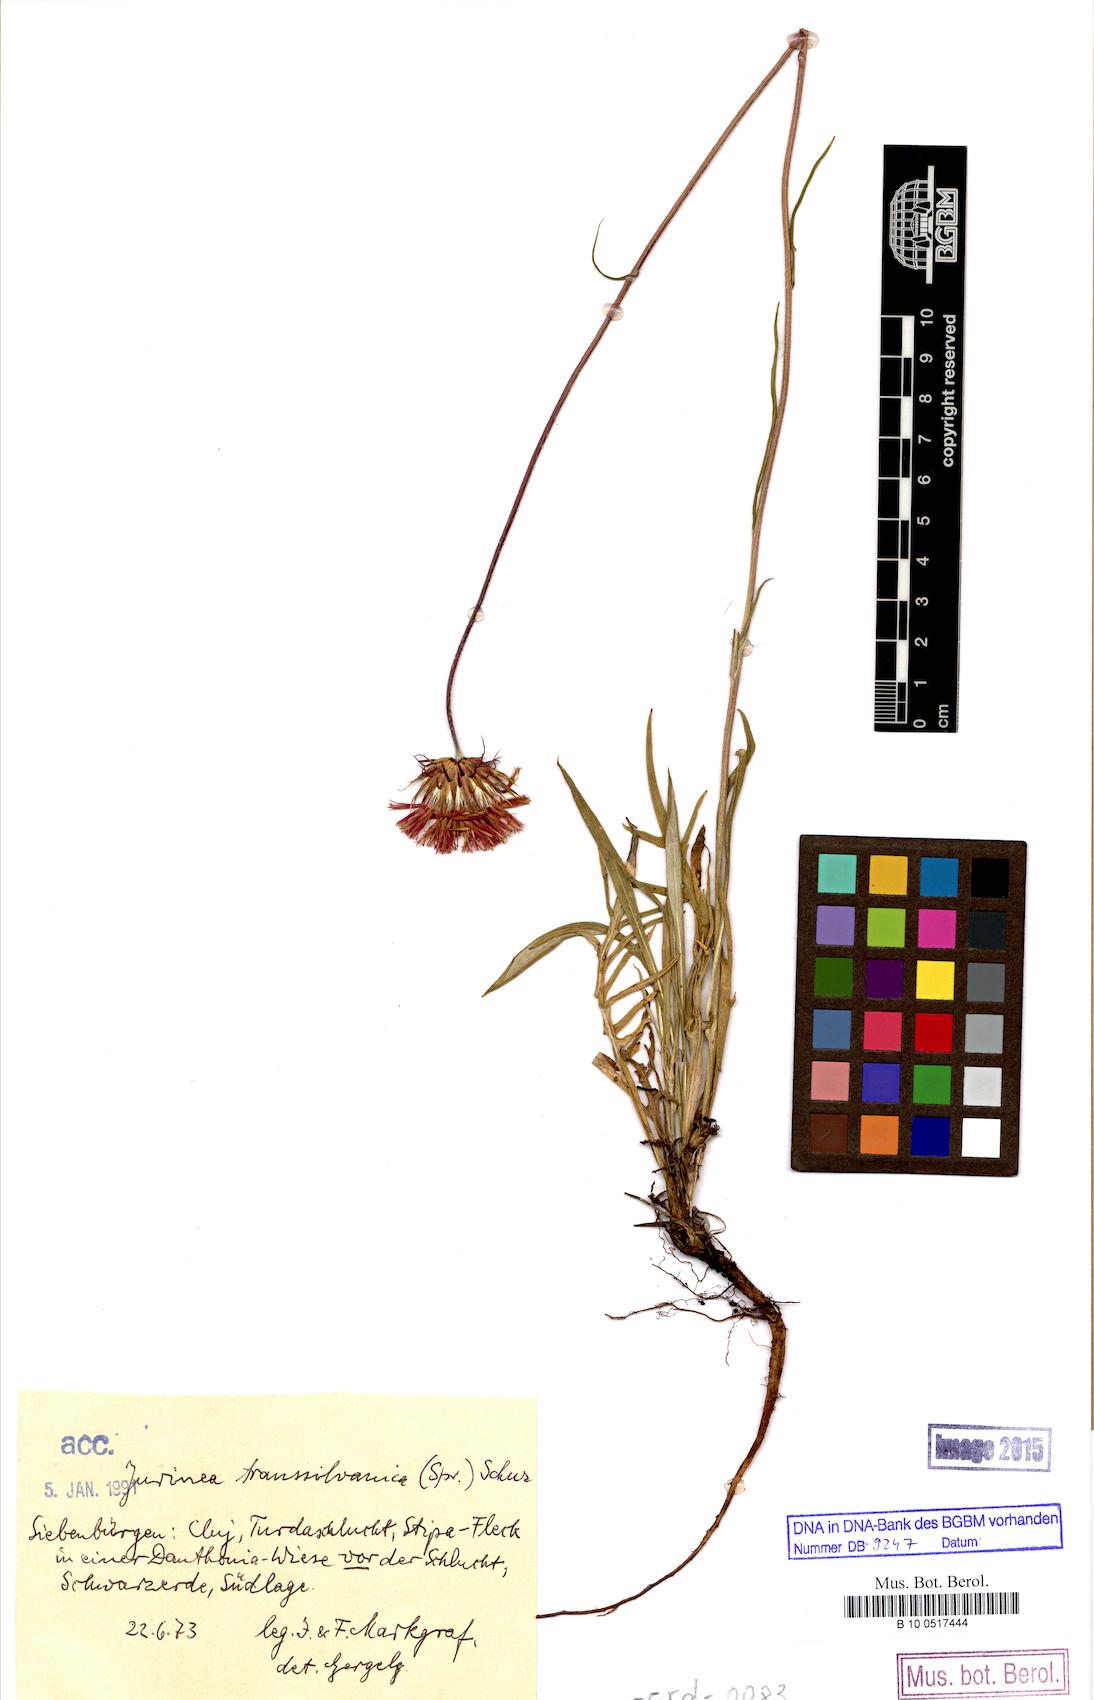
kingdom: Plantae
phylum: Tracheophyta
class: Magnoliopsida
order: Asterales
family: Asteraceae
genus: Jurinea
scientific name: Jurinea transsylvanica
